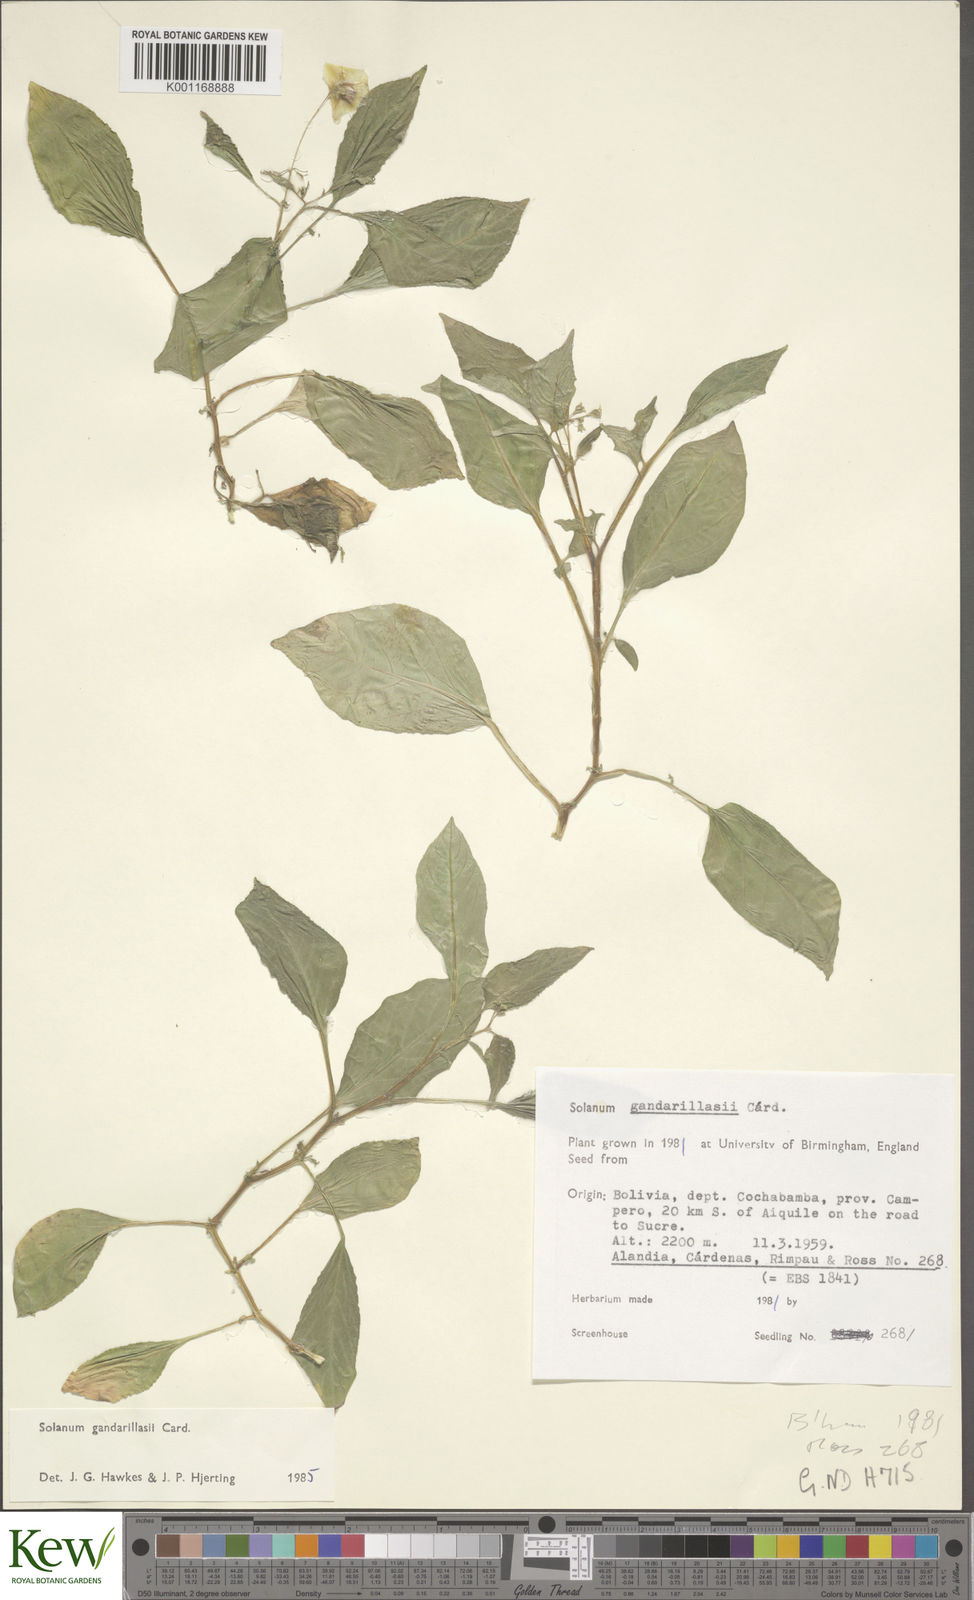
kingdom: Plantae
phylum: Tracheophyta
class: Magnoliopsida
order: Solanales
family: Solanaceae
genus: Solanum
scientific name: Solanum
